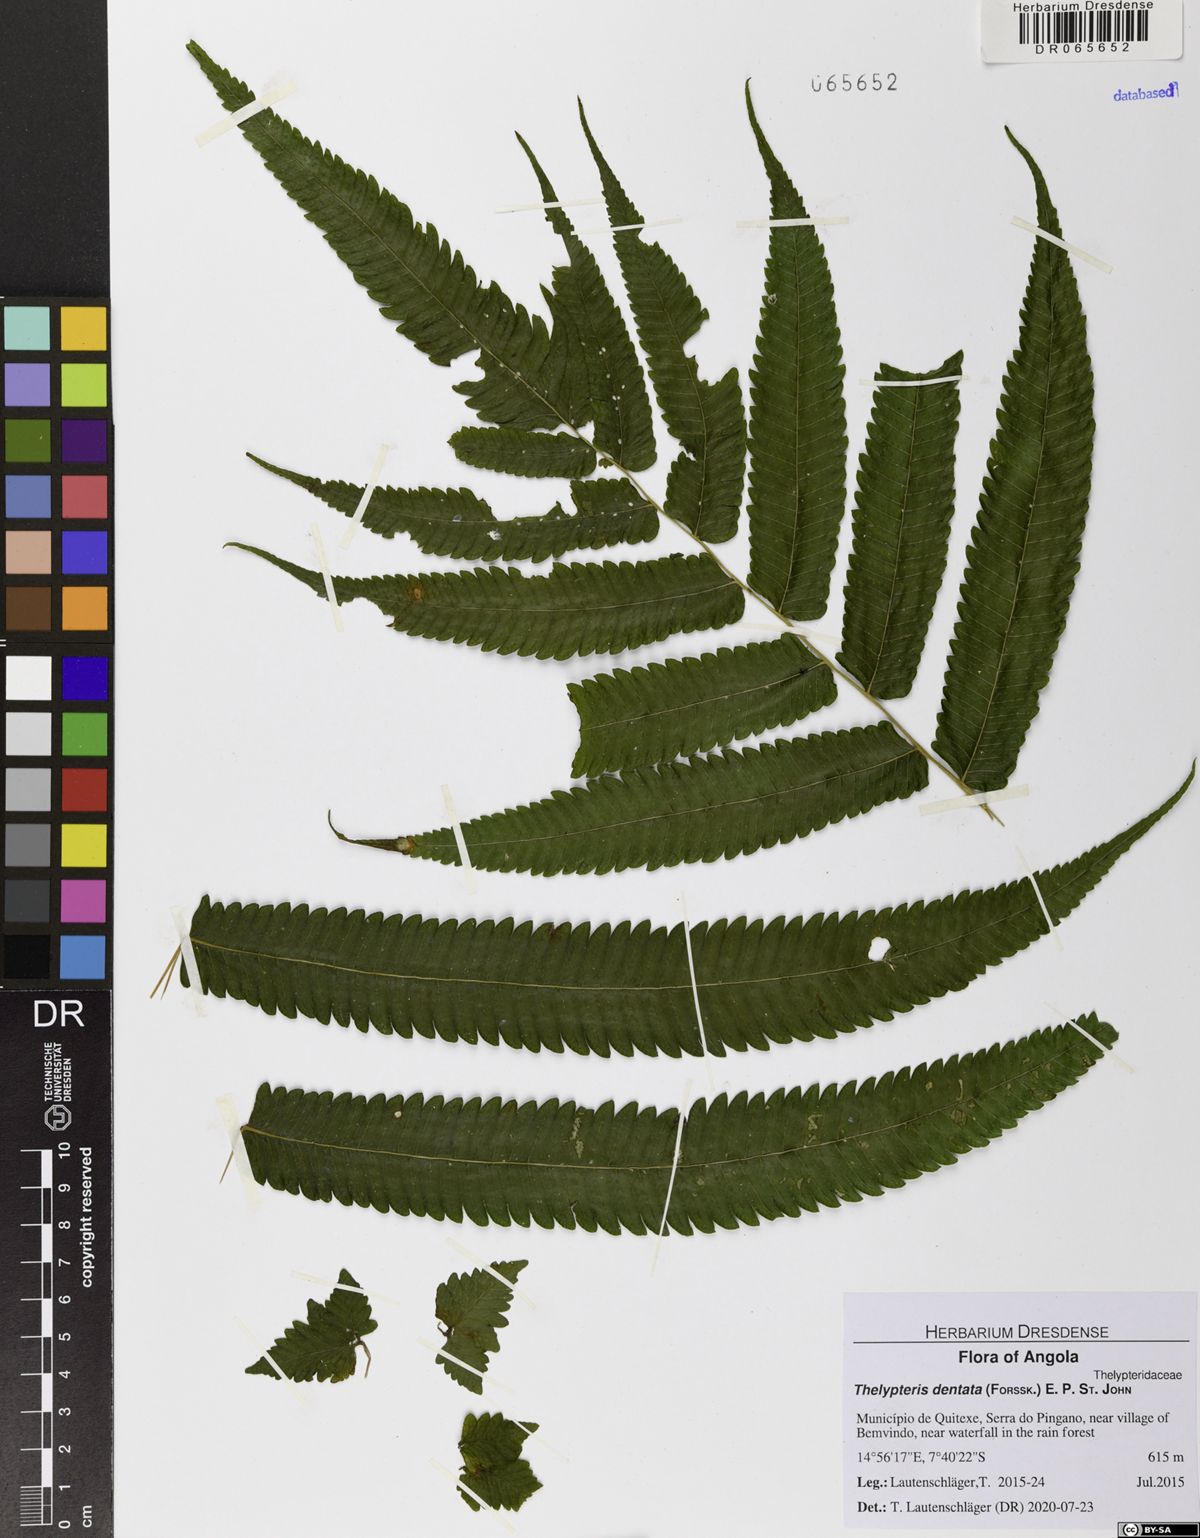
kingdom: Plantae
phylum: Tracheophyta
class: Polypodiopsida
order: Polypodiales
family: Thelypteridaceae
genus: Christella
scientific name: Christella dentata
